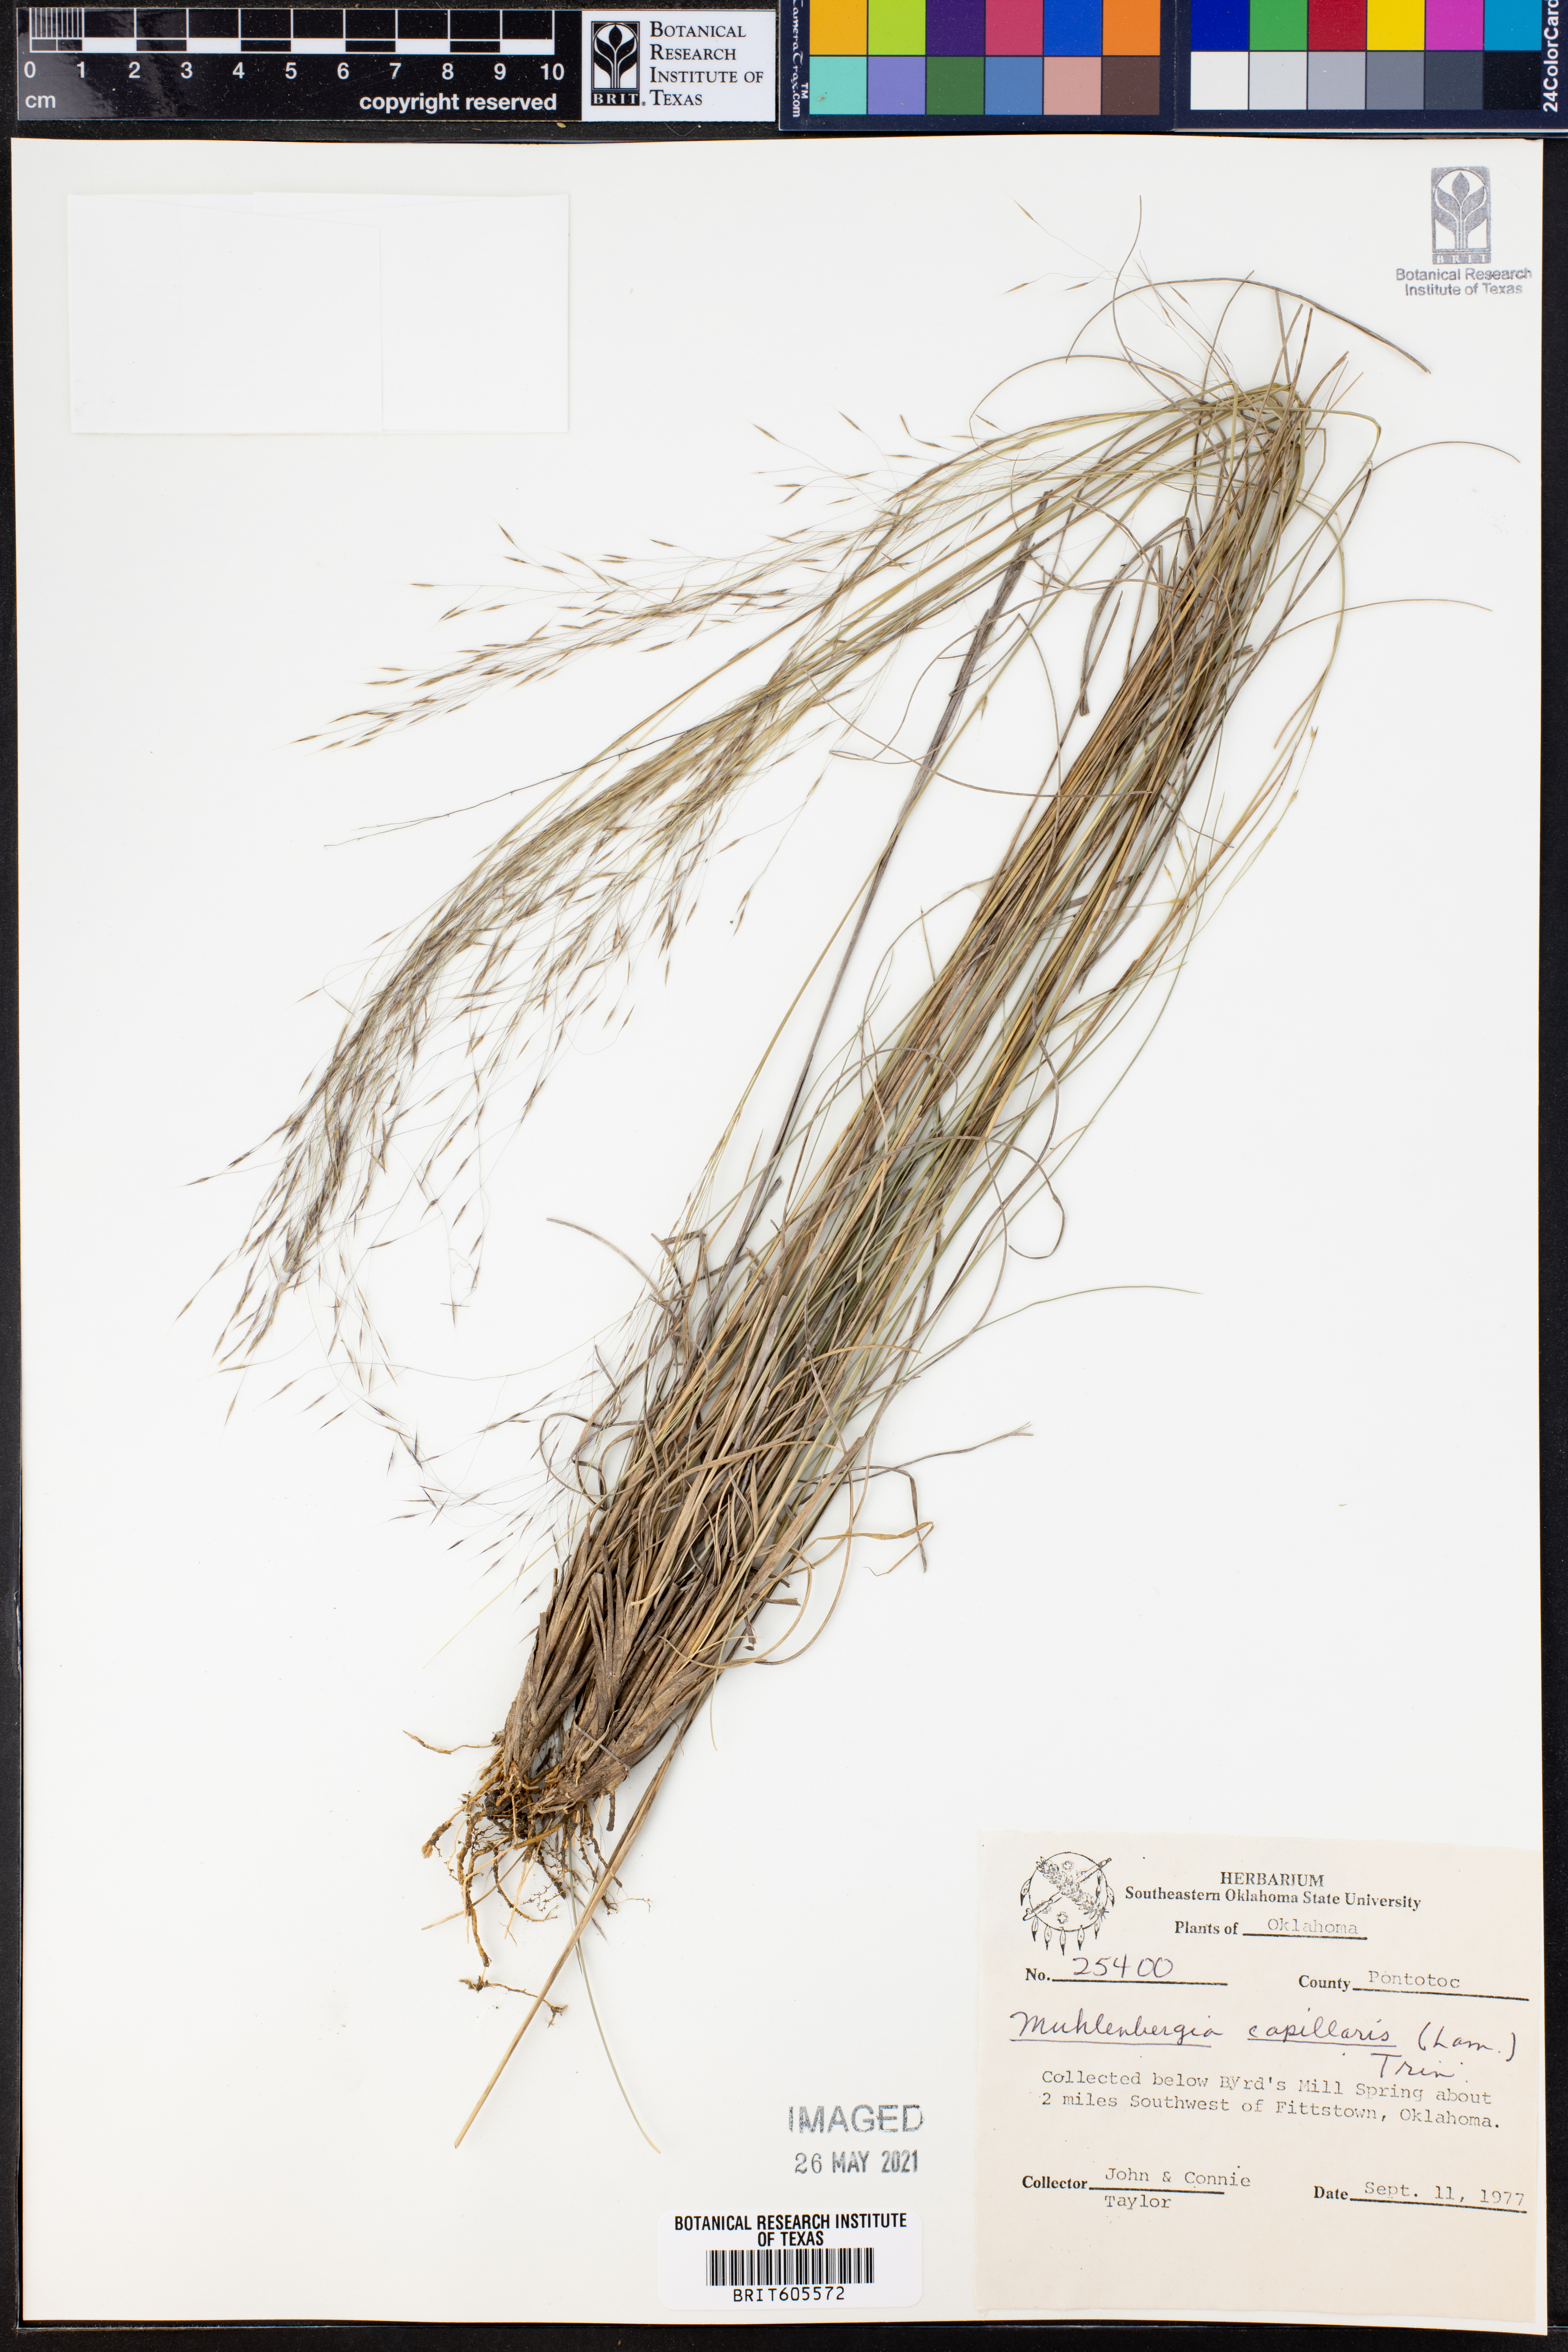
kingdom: Plantae
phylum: Tracheophyta
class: Liliopsida
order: Poales
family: Poaceae
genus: Muhlenbergia
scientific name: Muhlenbergia capillaris
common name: Purple grass
